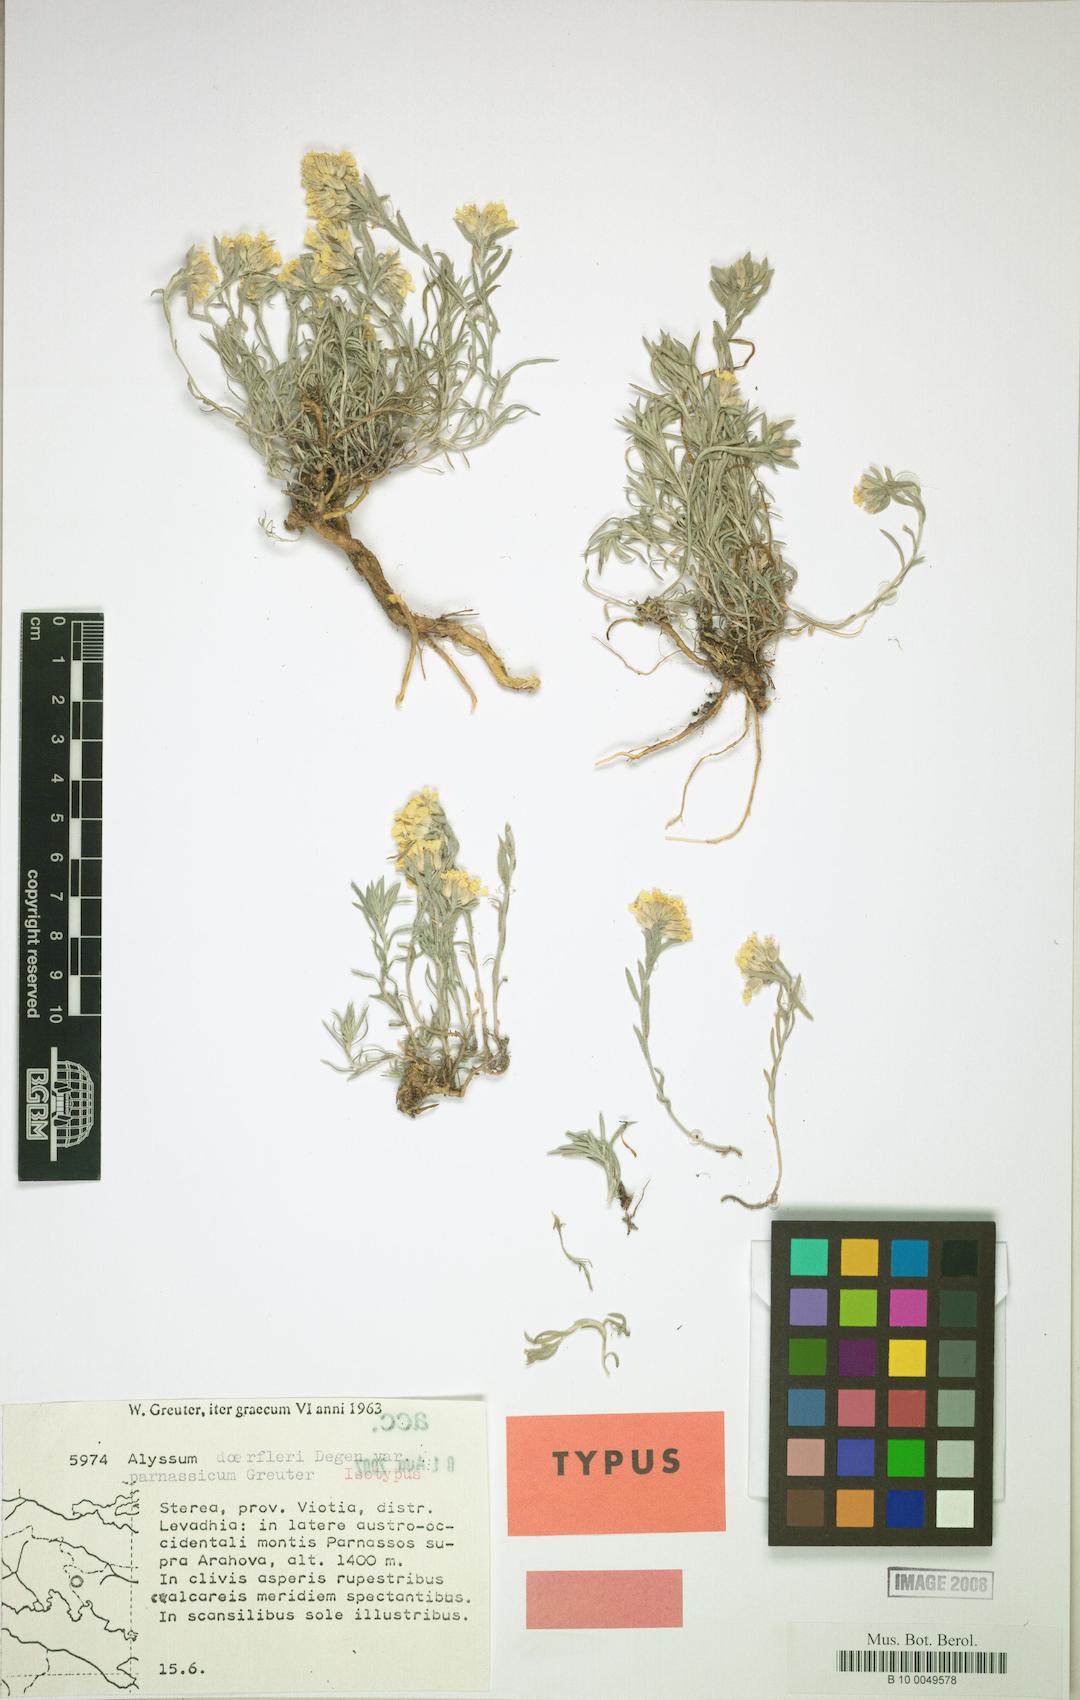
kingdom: Plantae
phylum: Tracheophyta
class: Magnoliopsida
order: Brassicales
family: Brassicaceae
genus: Alyssum
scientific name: Alyssum doerfleri
